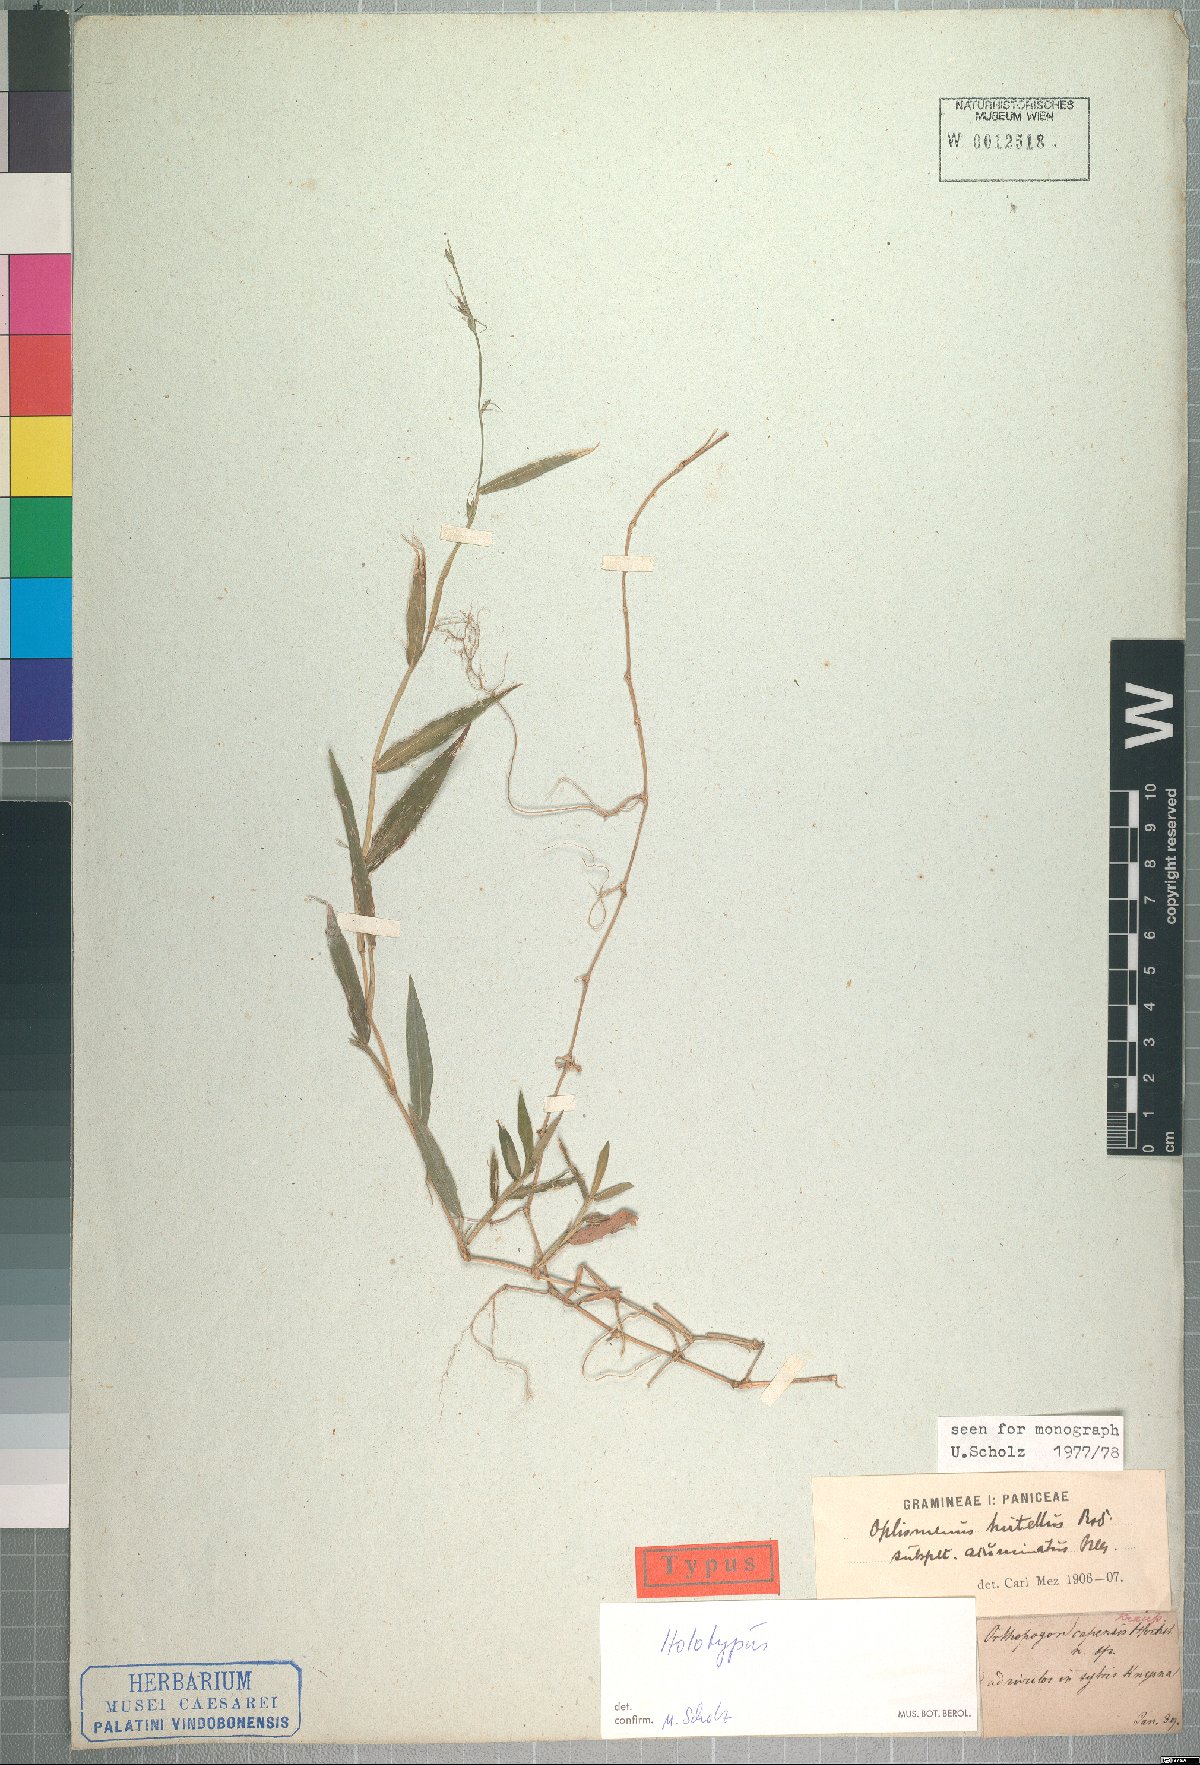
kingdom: Plantae
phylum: Tracheophyta
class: Liliopsida
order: Poales
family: Poaceae
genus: Oplismenus
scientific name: Oplismenus undulatifolius
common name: Wavyleaf basketgrass
